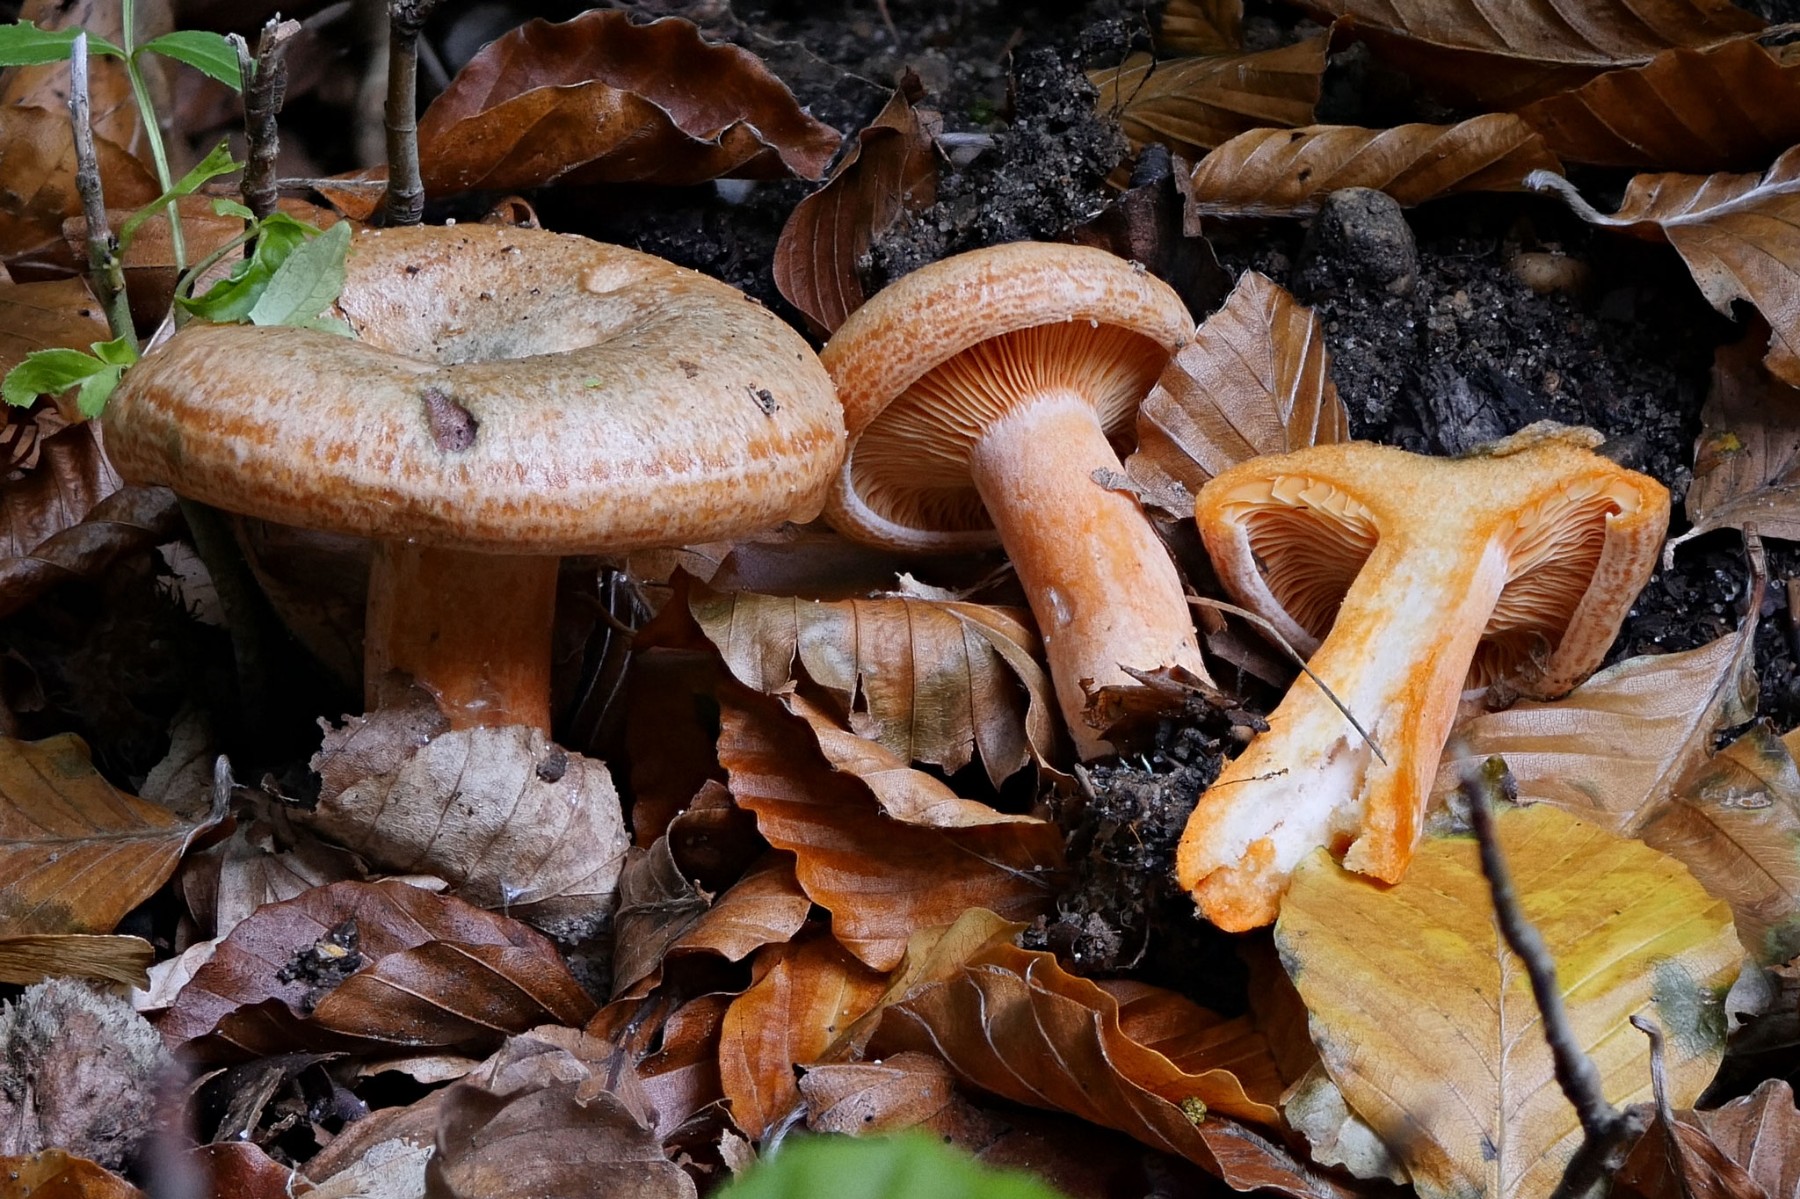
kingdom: Fungi
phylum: Basidiomycota
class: Agaricomycetes
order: Russulales
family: Russulaceae
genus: Lactarius
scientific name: Lactarius deterrimus
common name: gran-mælkehat
